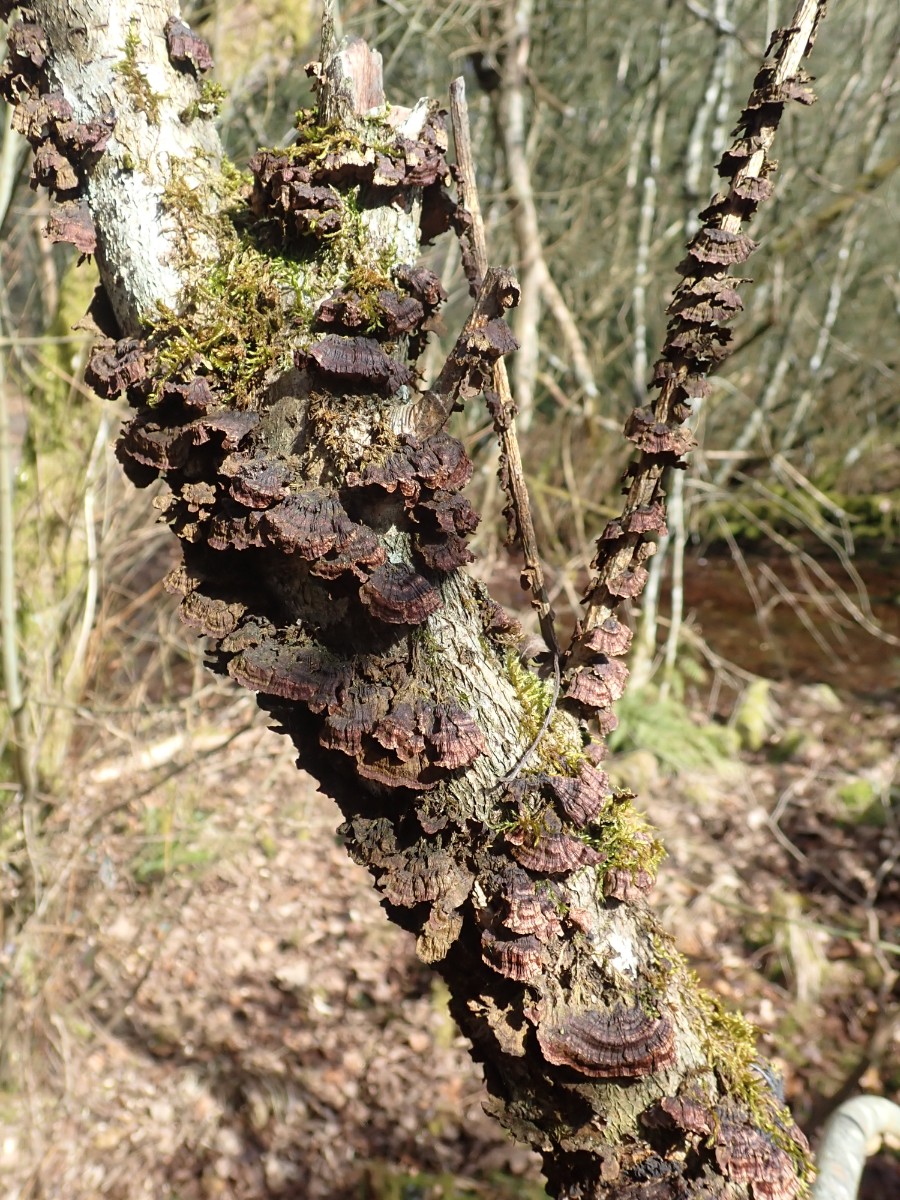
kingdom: Fungi
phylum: Basidiomycota
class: Agaricomycetes
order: Hymenochaetales
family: Hymenochaetaceae
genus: Hydnoporia
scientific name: Hydnoporia tabacina
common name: tobaksbrun ruslædersvamp
